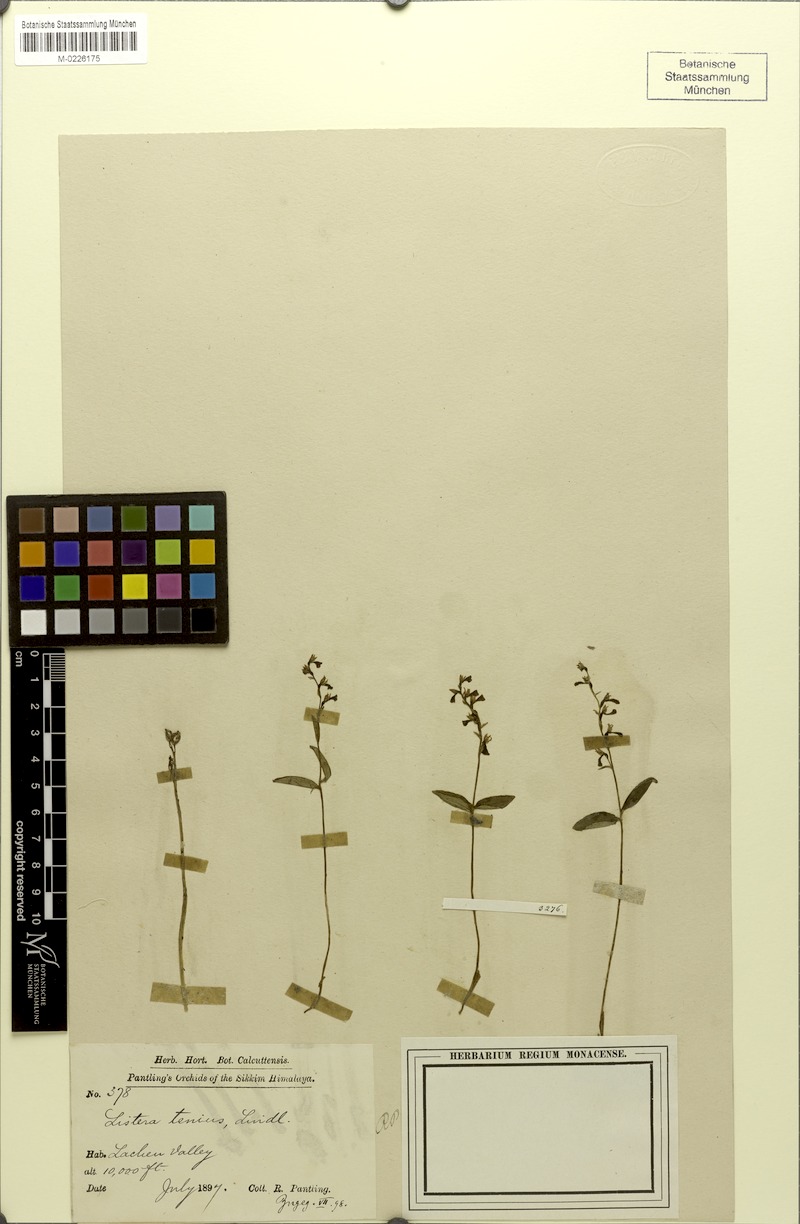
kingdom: Plantae
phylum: Tracheophyta
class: Liliopsida
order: Asparagales
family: Orchidaceae
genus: Neottia
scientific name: Neottia tenuis
